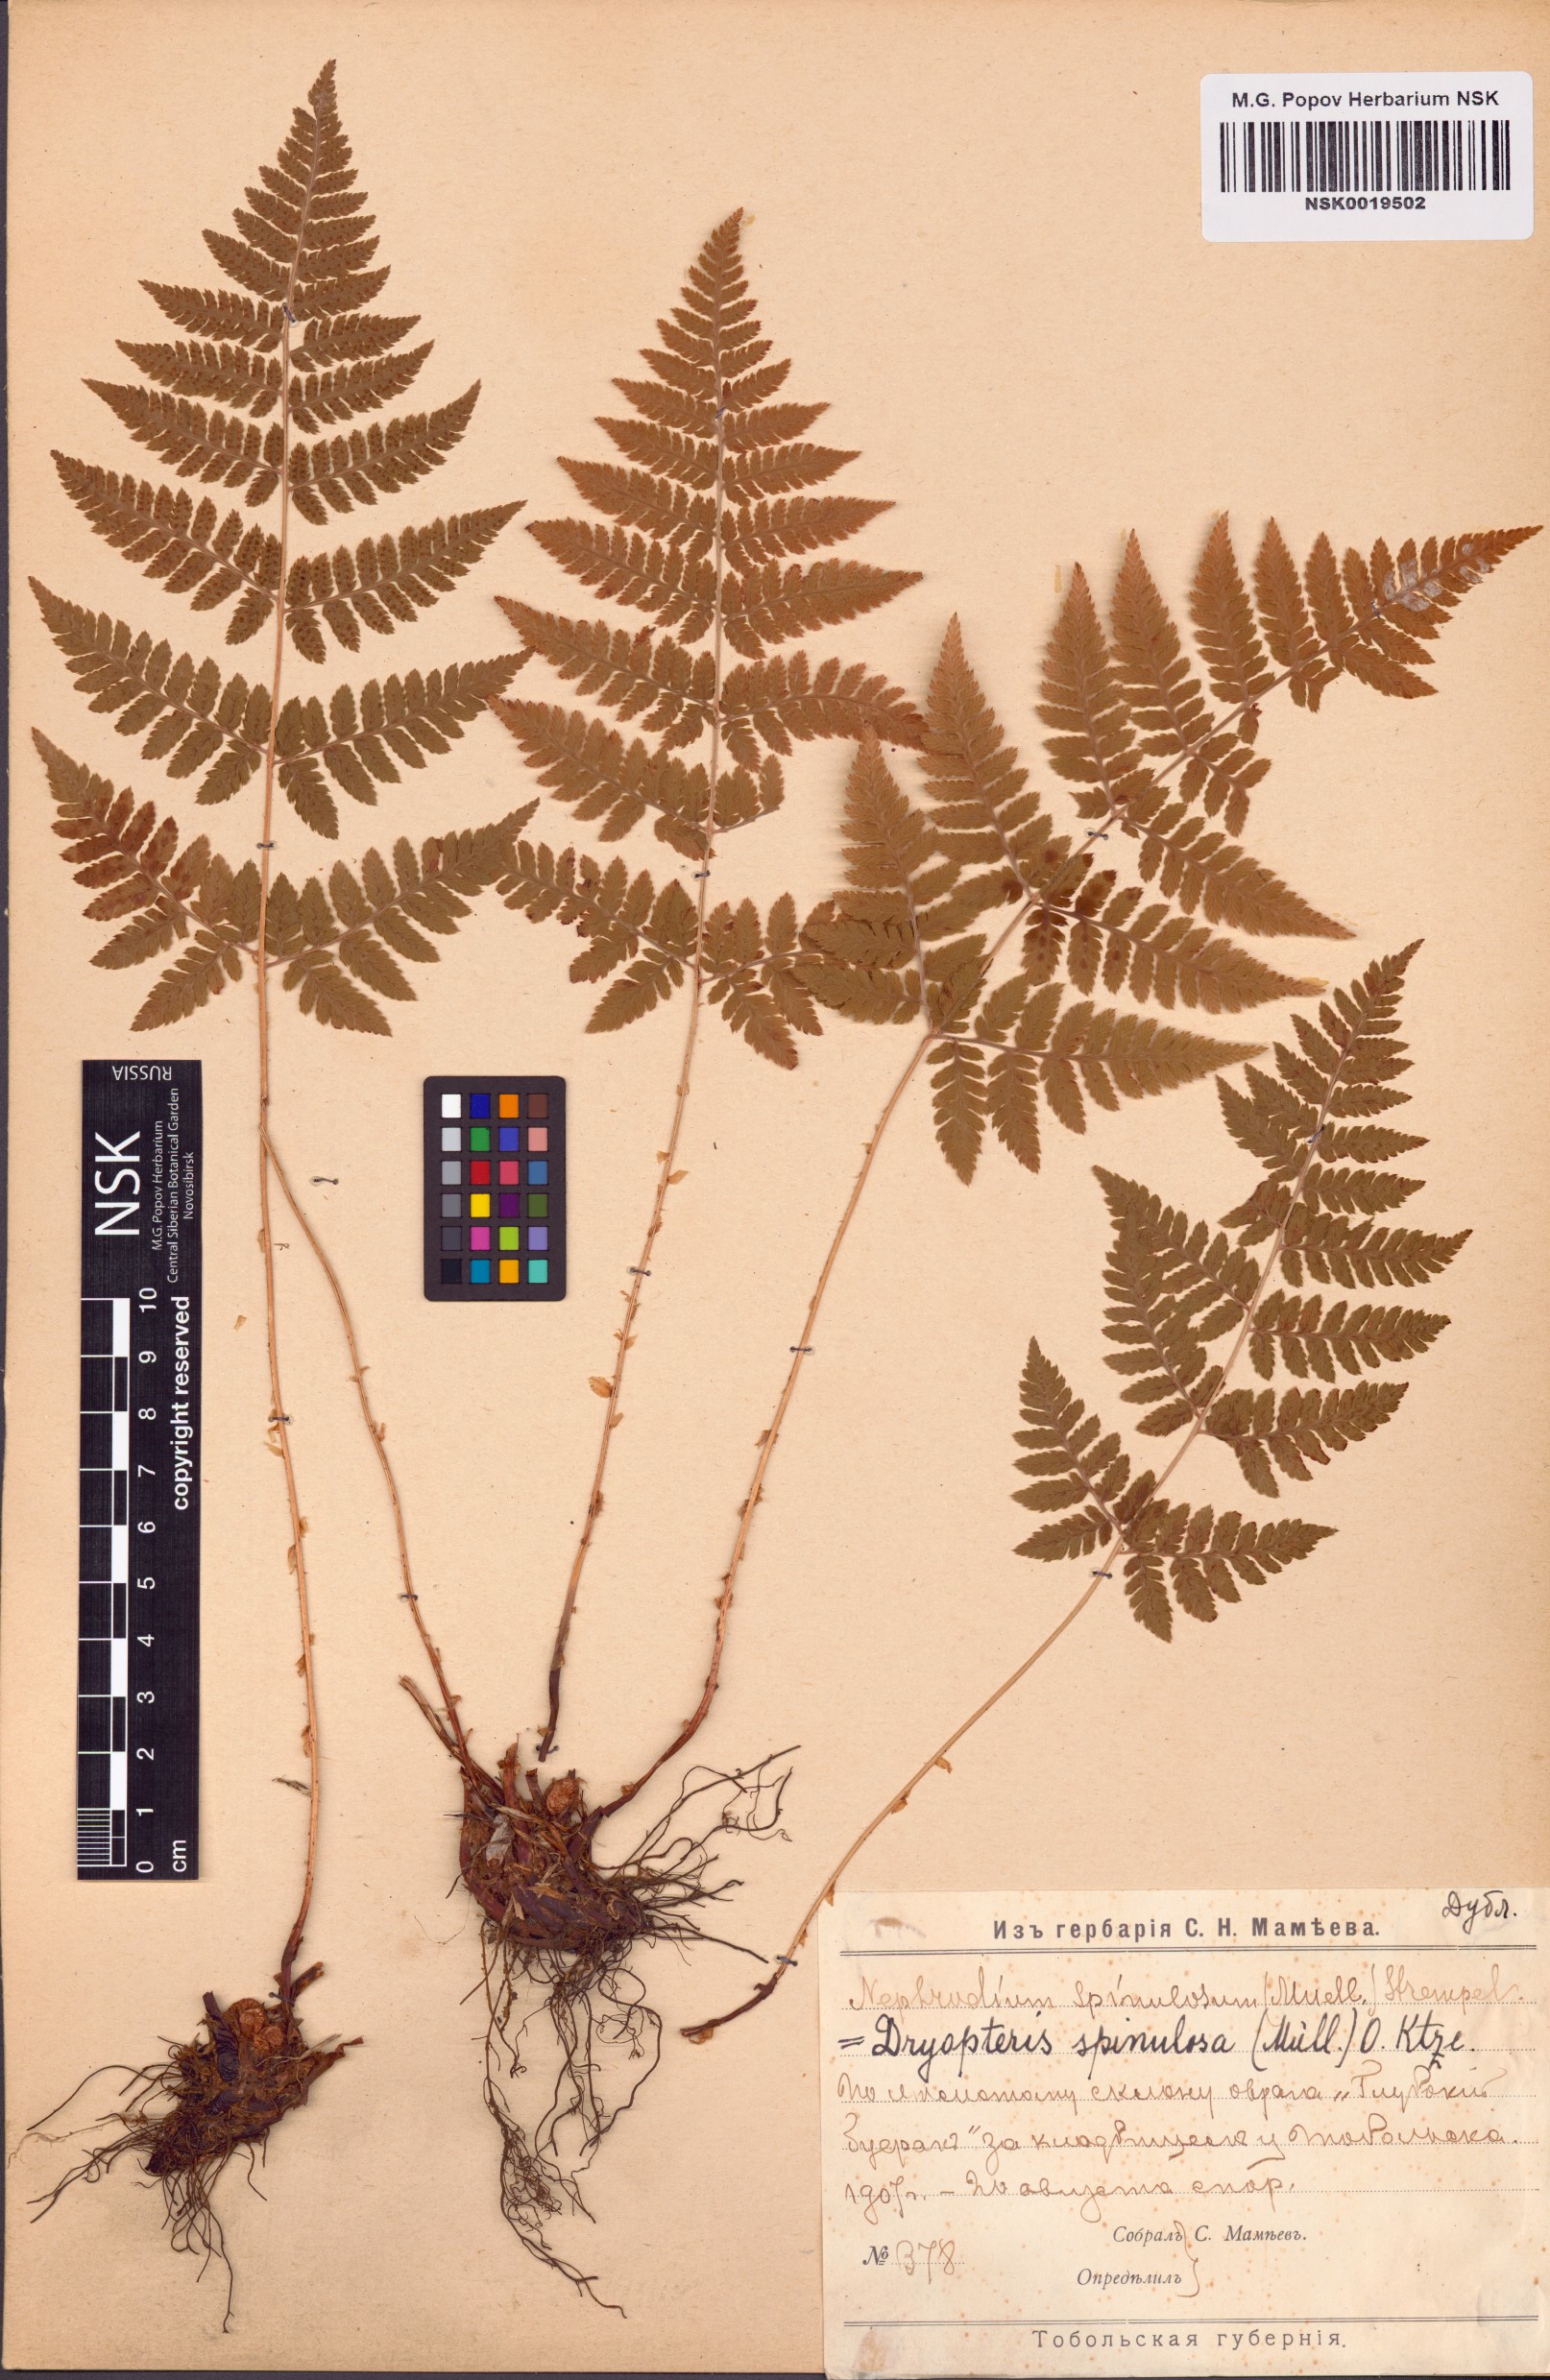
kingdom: Plantae
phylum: Tracheophyta
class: Polypodiopsida
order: Polypodiales
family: Dryopteridaceae
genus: Dryopteris
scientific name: Dryopteris carthusiana
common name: Narrow buckler-fern
